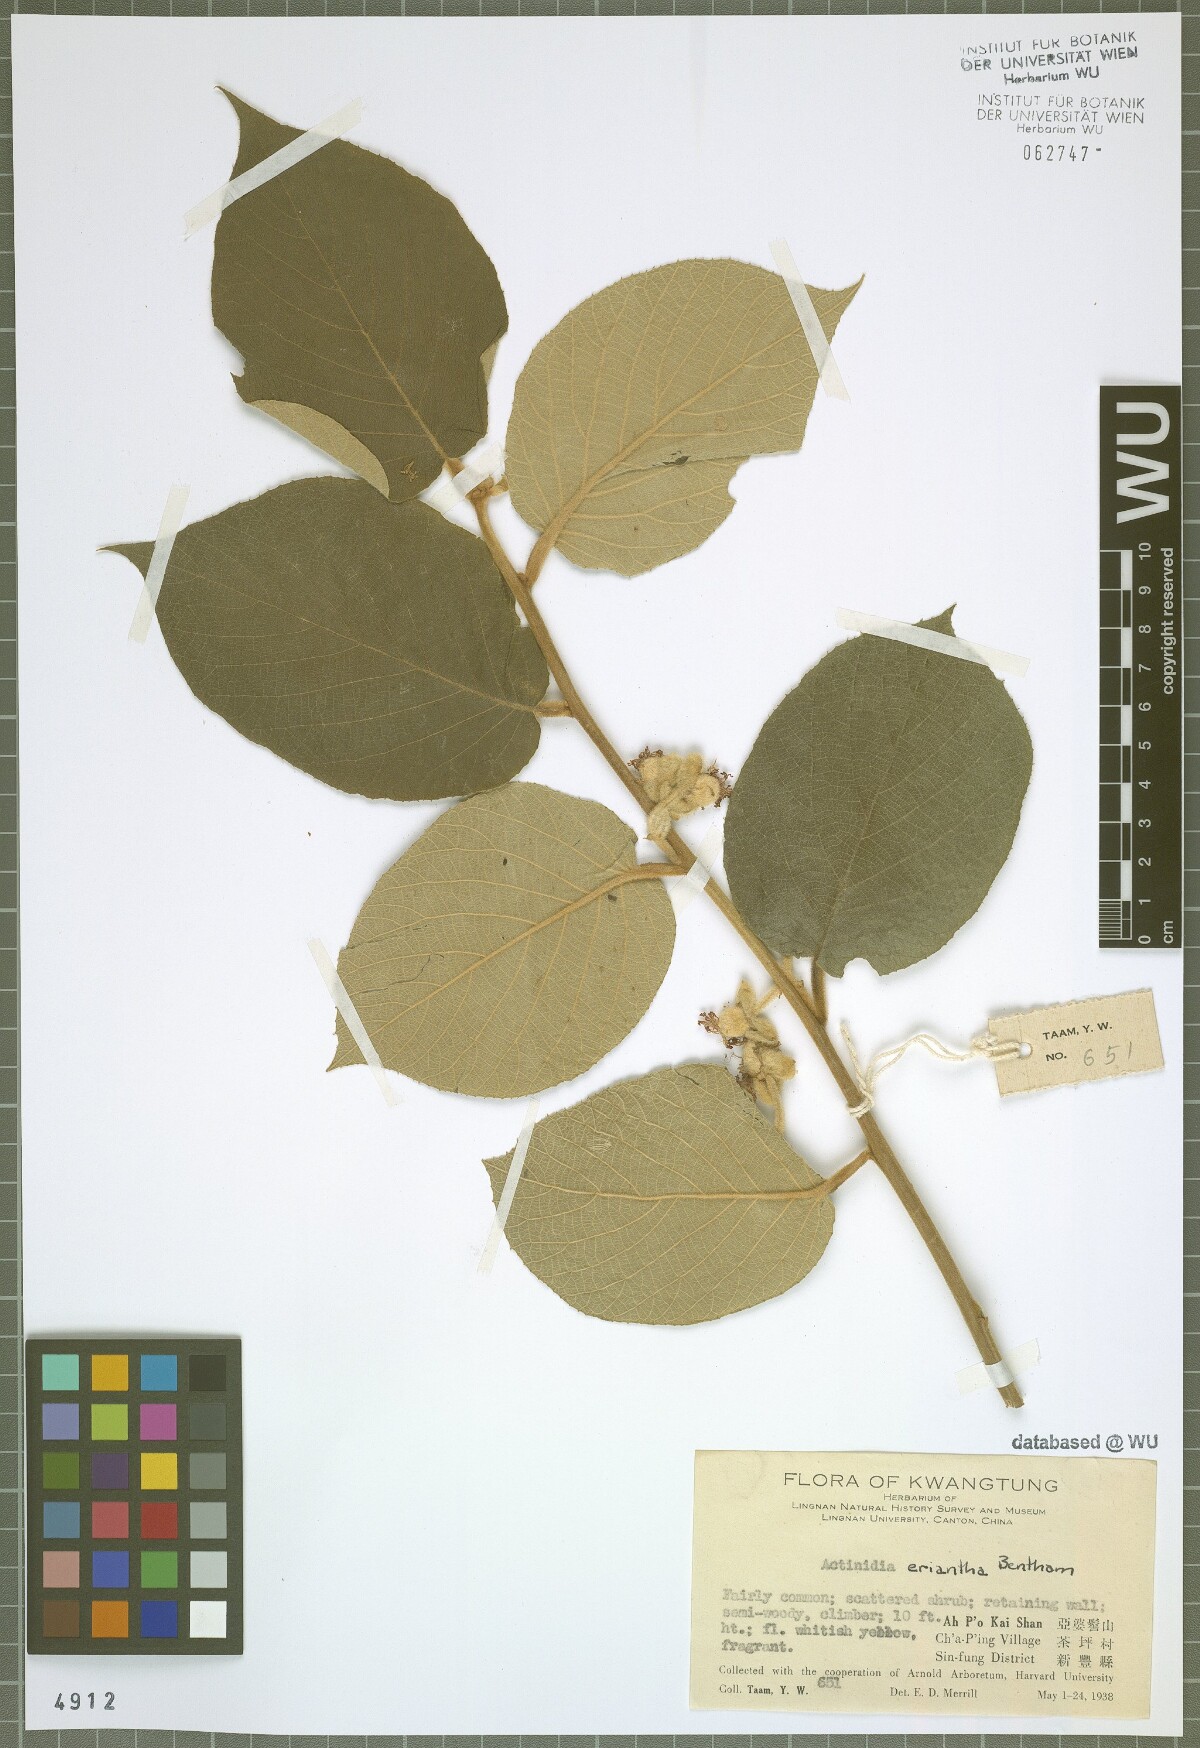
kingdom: Plantae
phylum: Tracheophyta
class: Magnoliopsida
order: Ericales
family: Actinidiaceae
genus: Actinidia
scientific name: Actinidia eriantha
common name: Velvetvine
